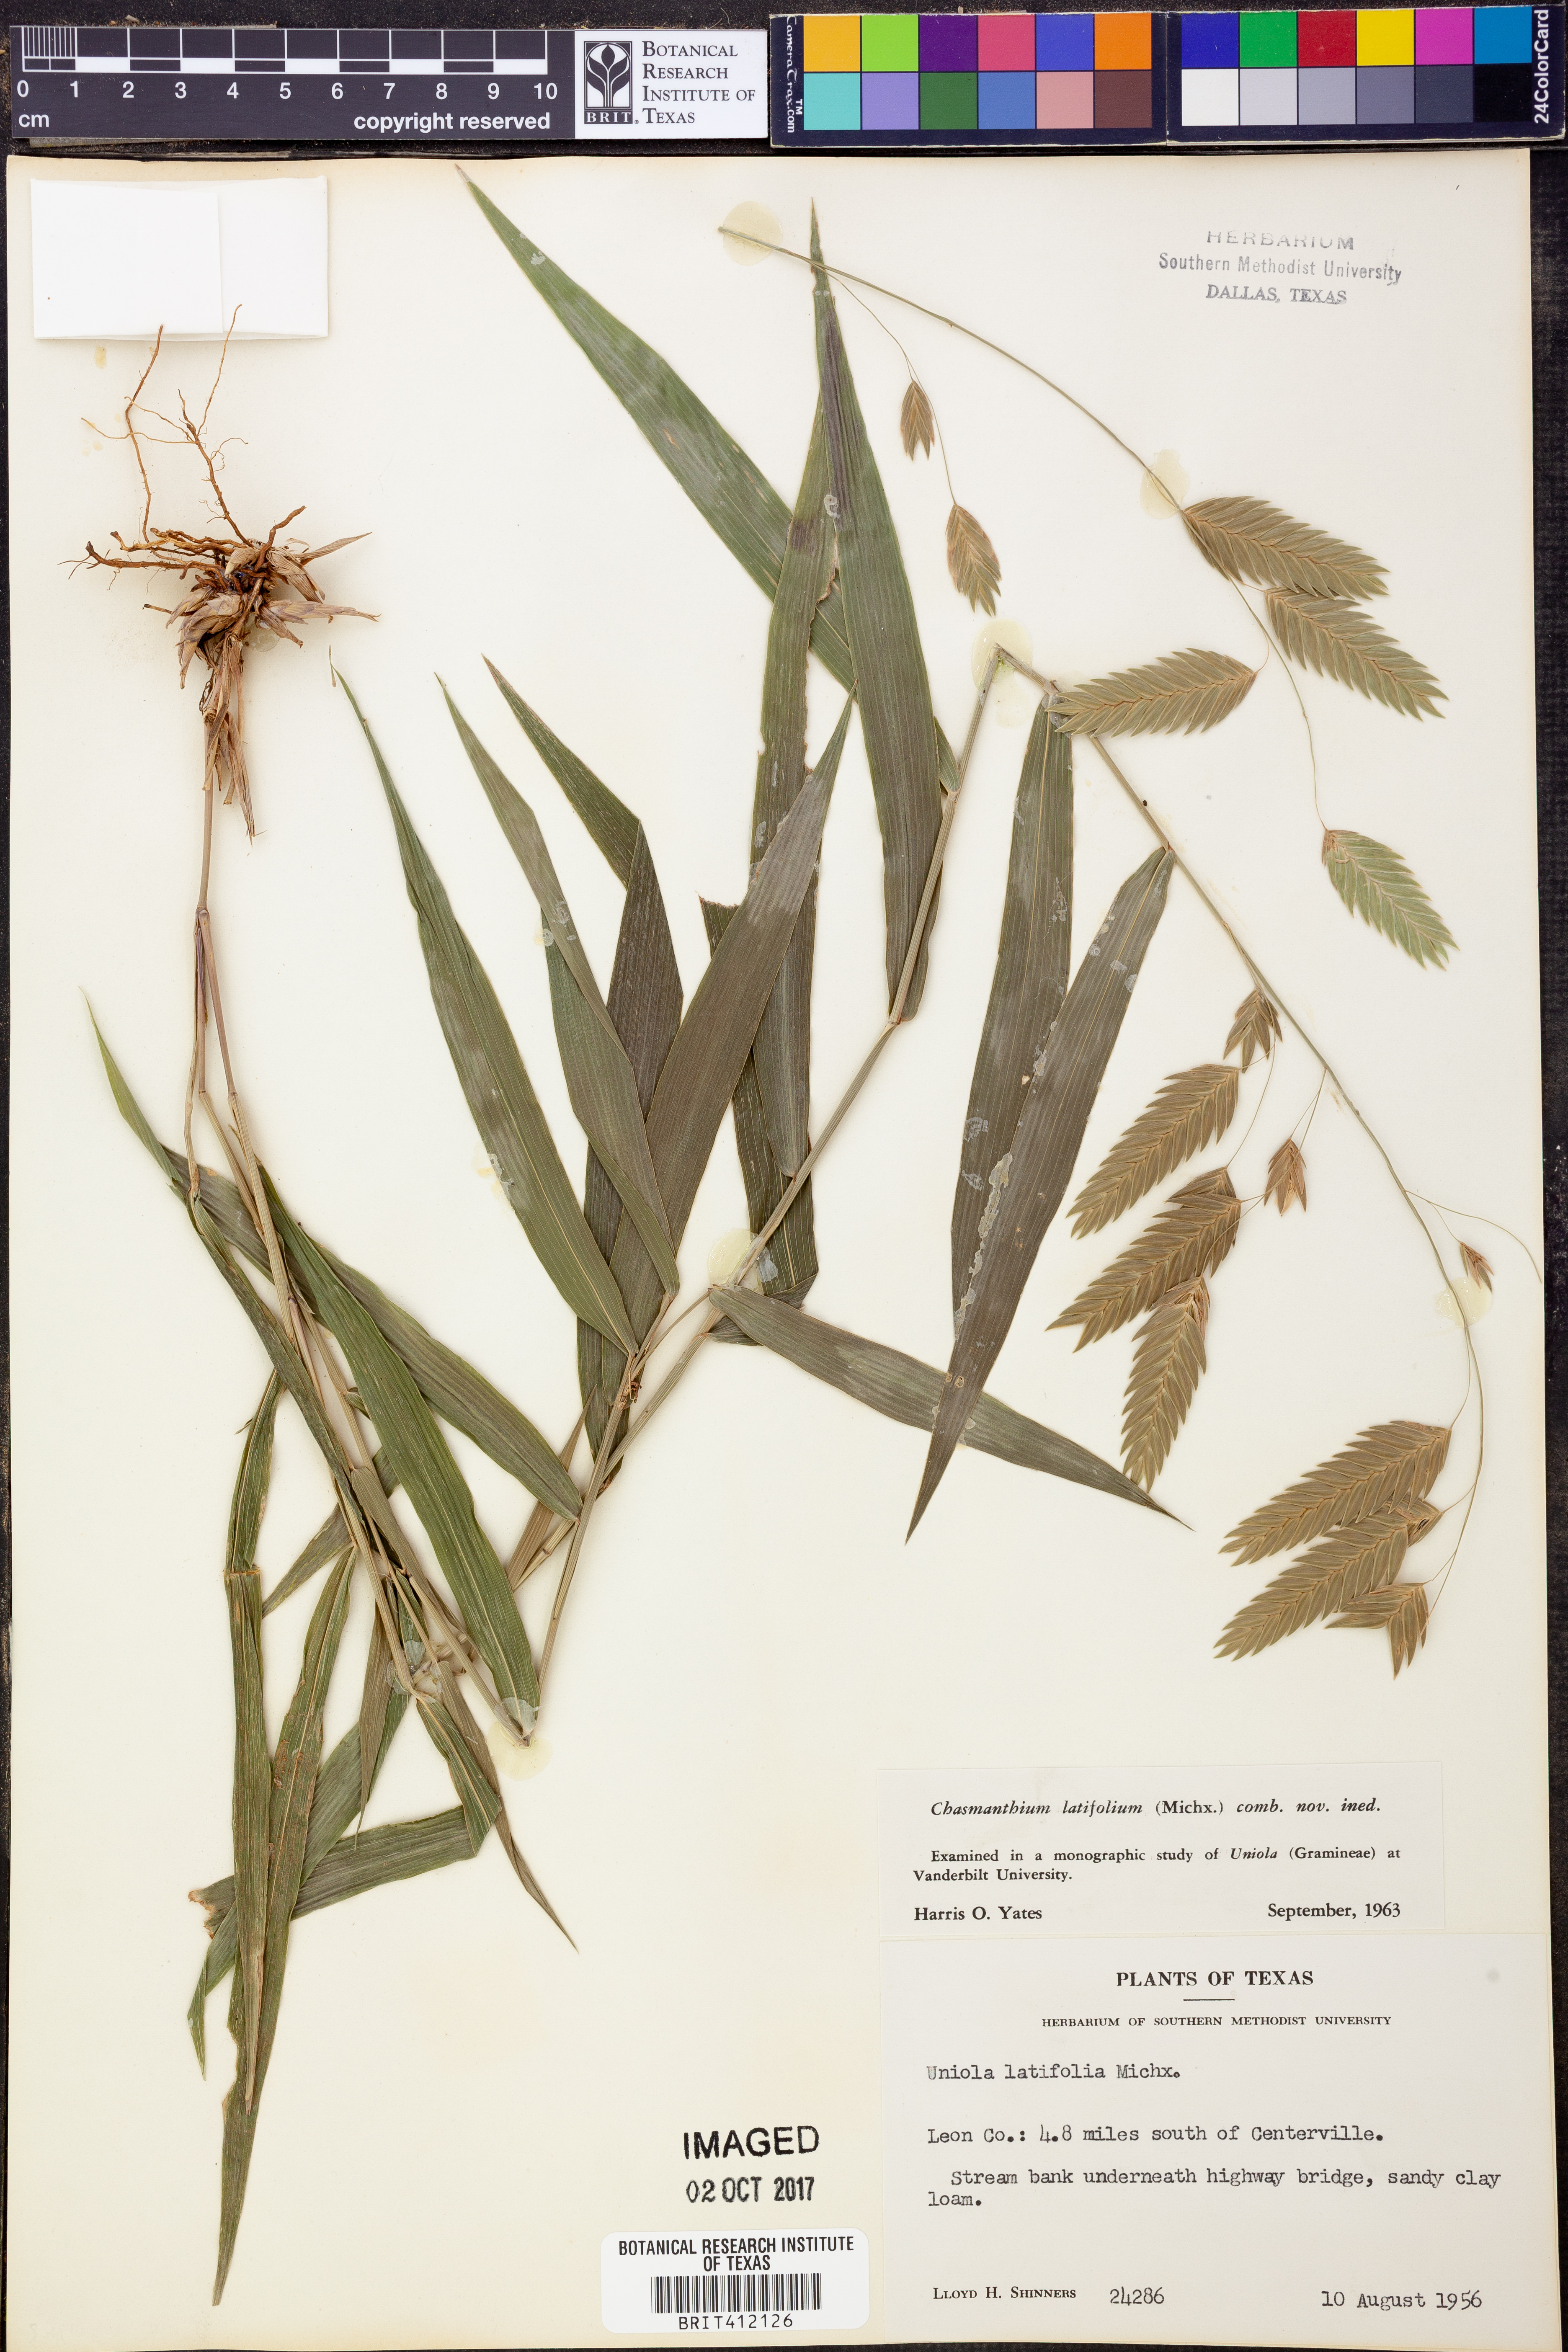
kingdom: Plantae
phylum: Tracheophyta
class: Liliopsida
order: Poales
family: Poaceae
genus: Chasmanthium
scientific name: Chasmanthium latifolium
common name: Broad-leaved chasmanthium
